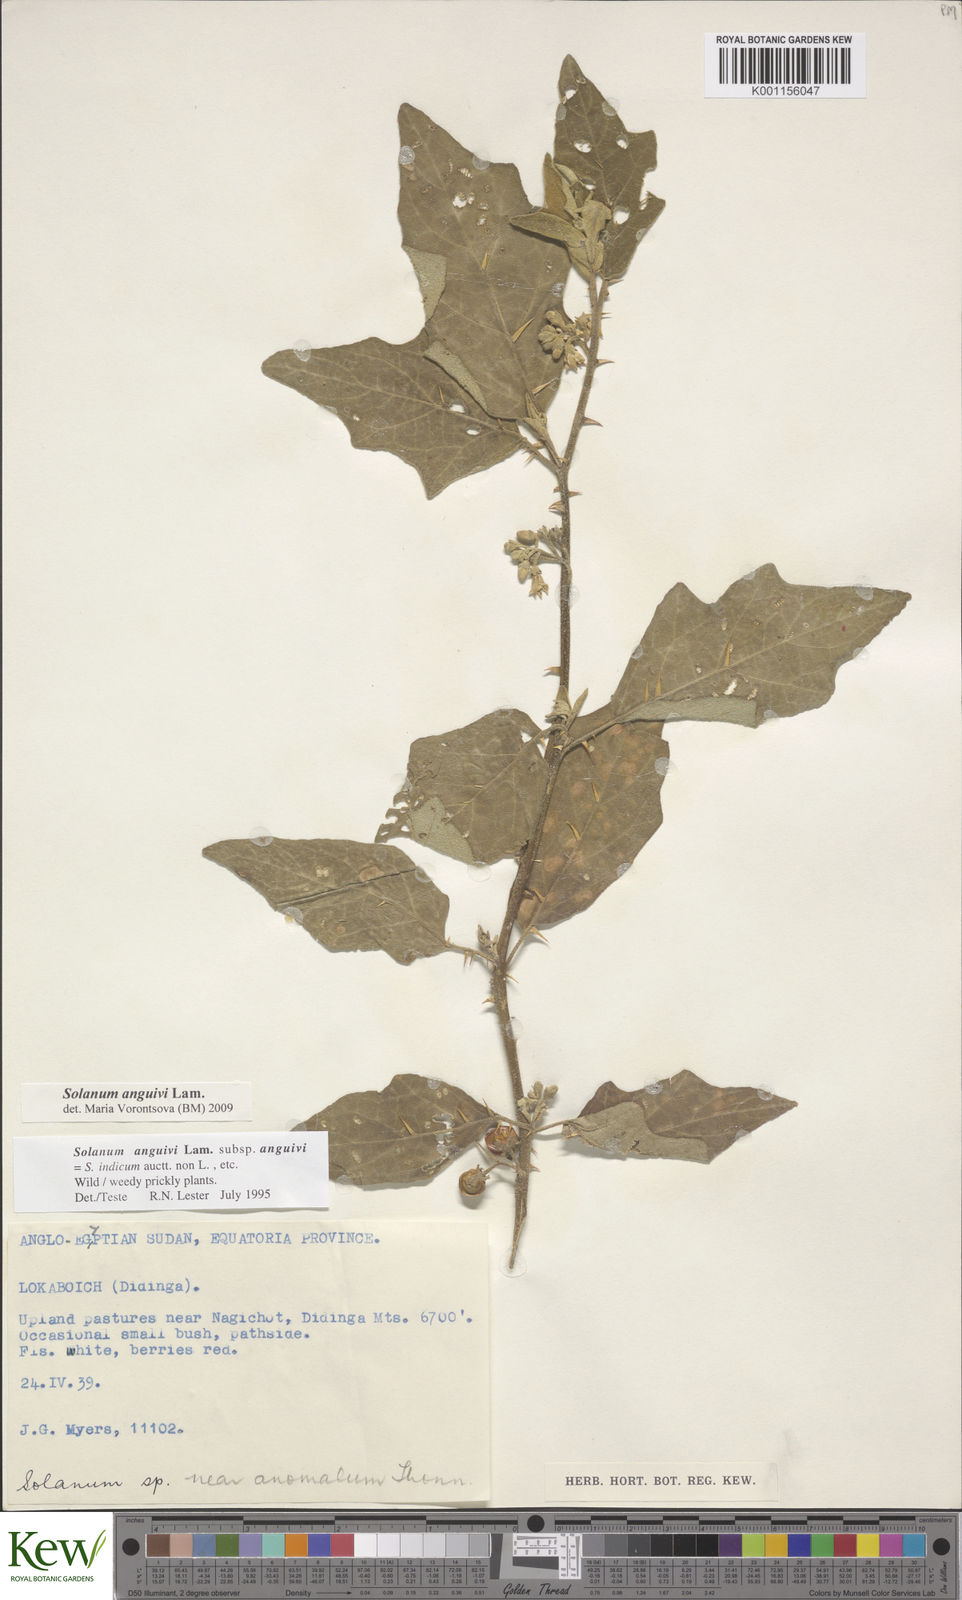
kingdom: Plantae
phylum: Tracheophyta
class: Magnoliopsida
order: Solanales
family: Solanaceae
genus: Solanum
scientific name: Solanum anguivi
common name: Forest bitterberry
